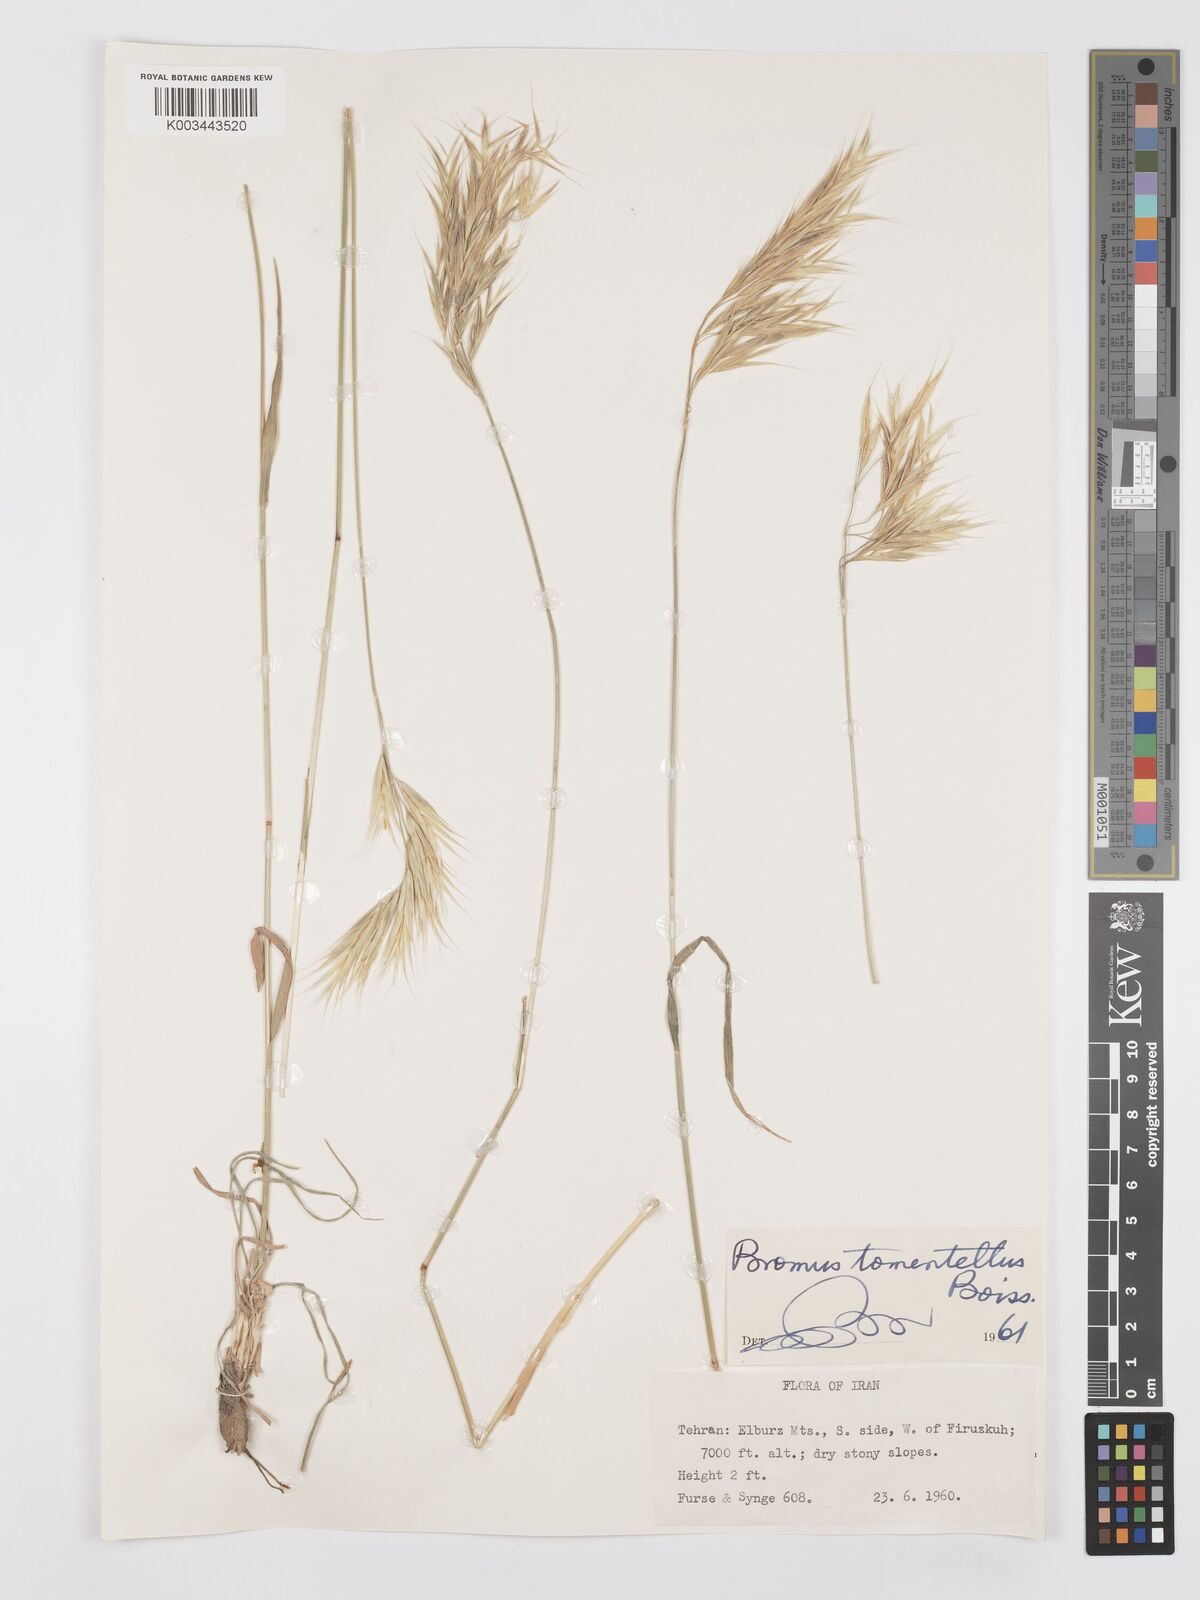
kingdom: Plantae
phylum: Tracheophyta
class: Liliopsida
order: Poales
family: Poaceae
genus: Bromus
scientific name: Bromus tomentellus
